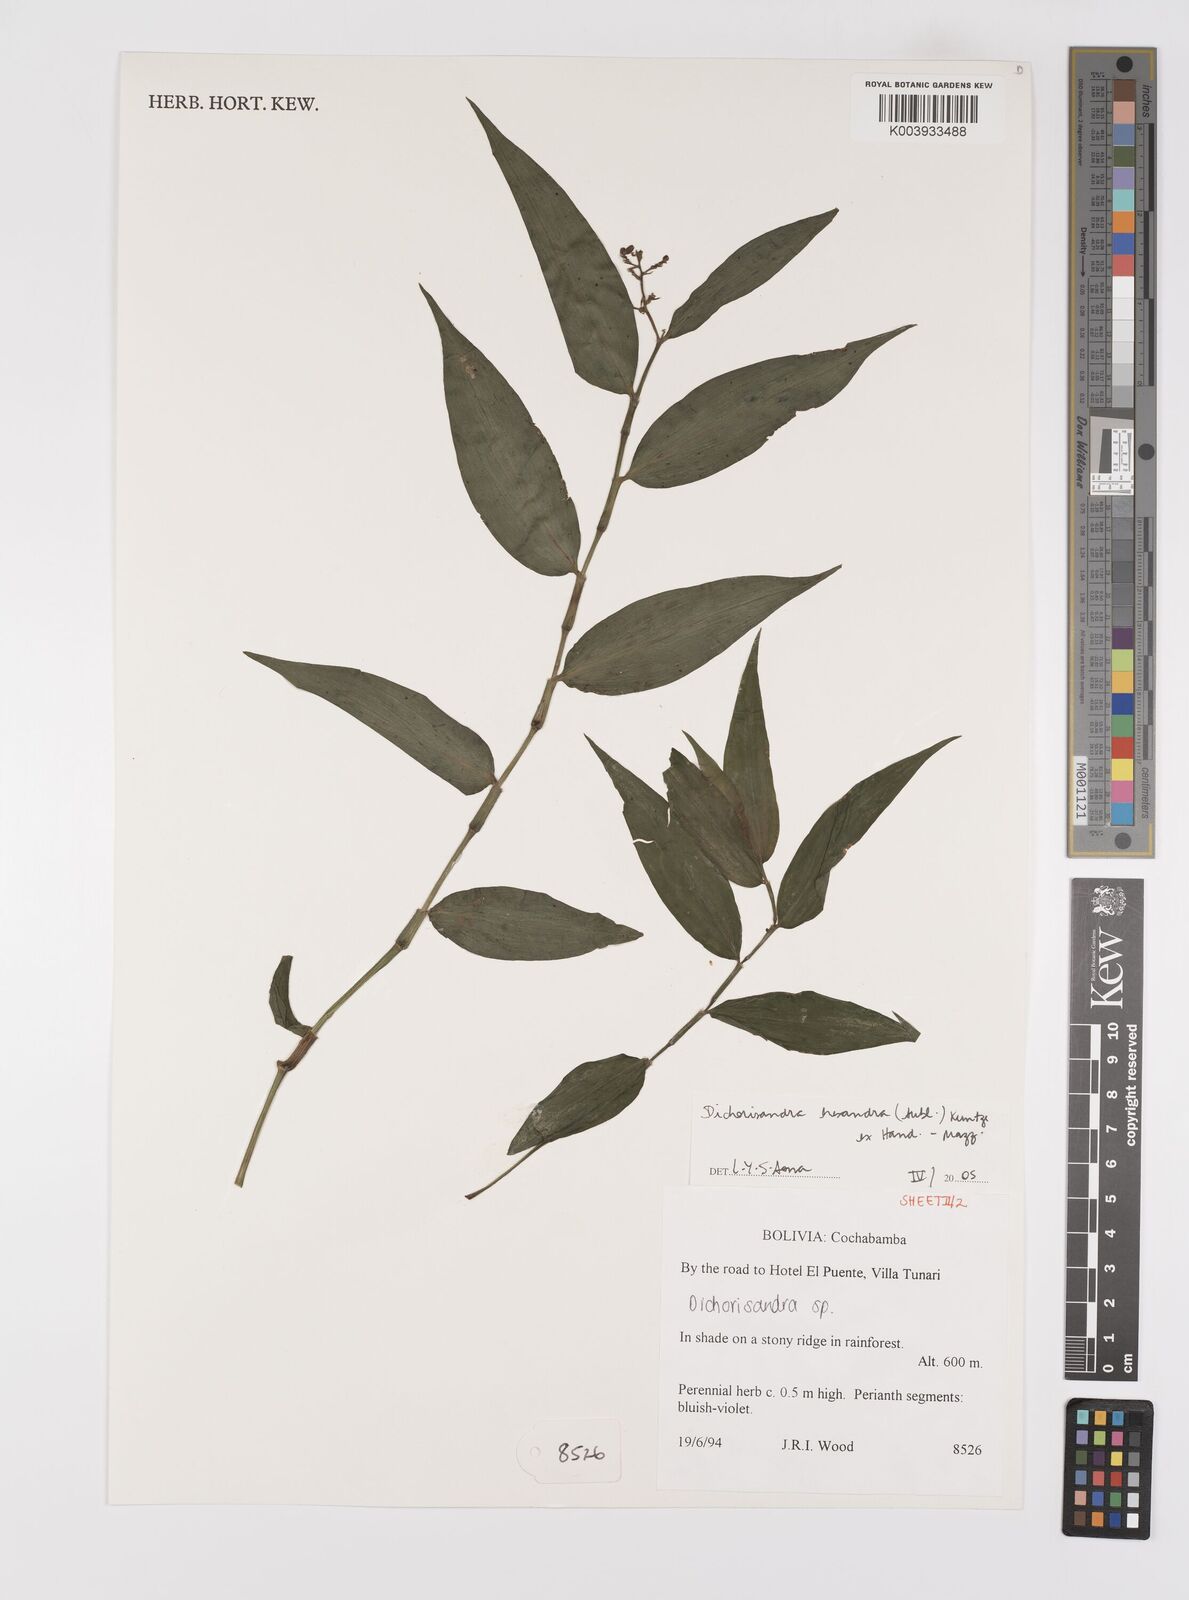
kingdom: Plantae
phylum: Tracheophyta
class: Liliopsida
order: Commelinales
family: Commelinaceae
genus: Dichorisandra
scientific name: Dichorisandra hexandra
